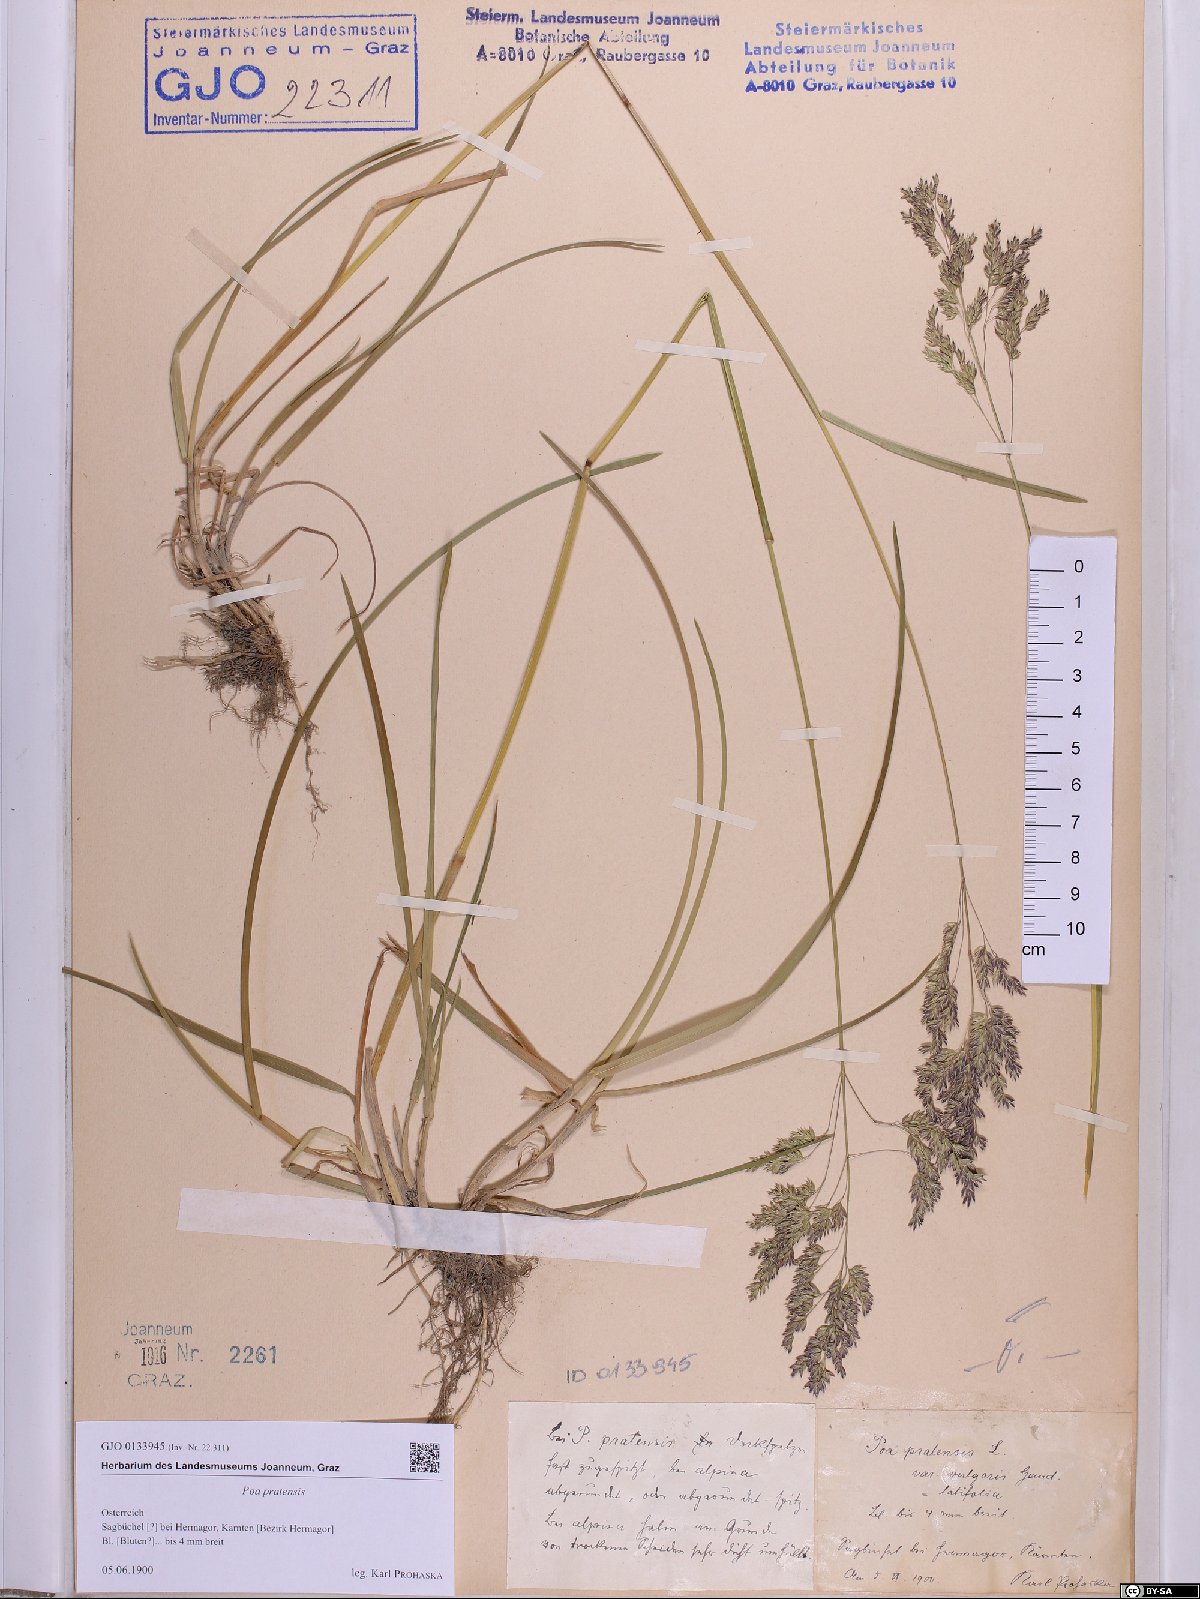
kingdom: Plantae
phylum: Tracheophyta
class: Liliopsida
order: Poales
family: Poaceae
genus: Poa
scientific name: Poa pratensis
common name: Kentucky bluegrass
